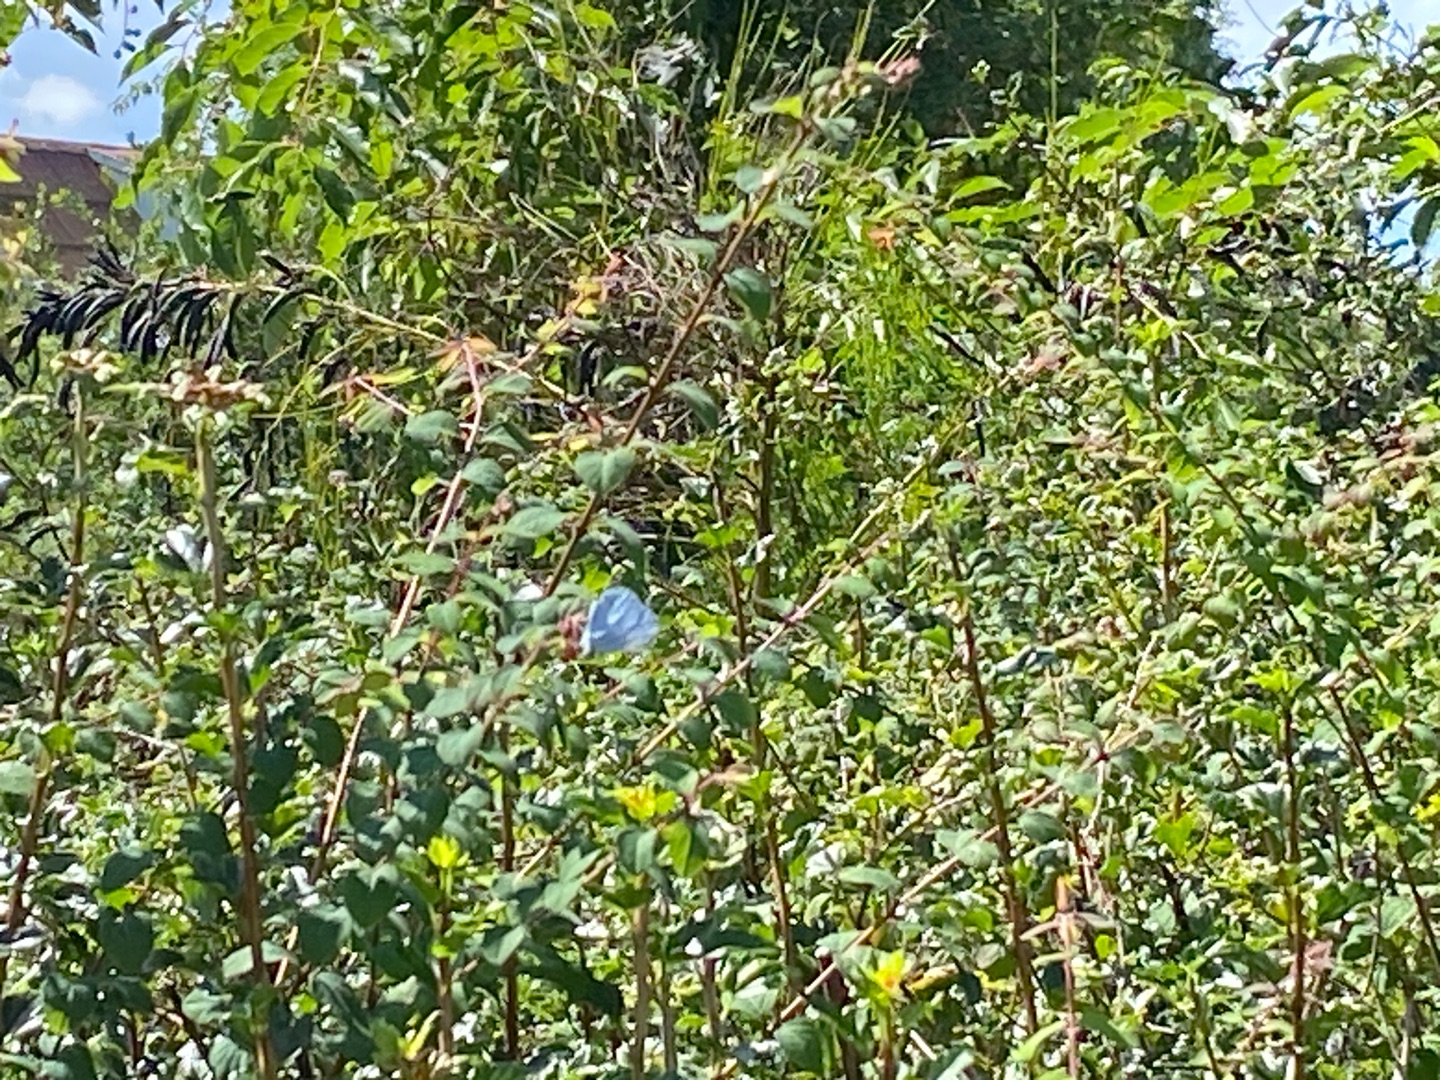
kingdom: Animalia
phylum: Arthropoda
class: Insecta
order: Lepidoptera
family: Lycaenidae
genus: Celastrina
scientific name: Celastrina argiolus
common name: Skovblåfugl
